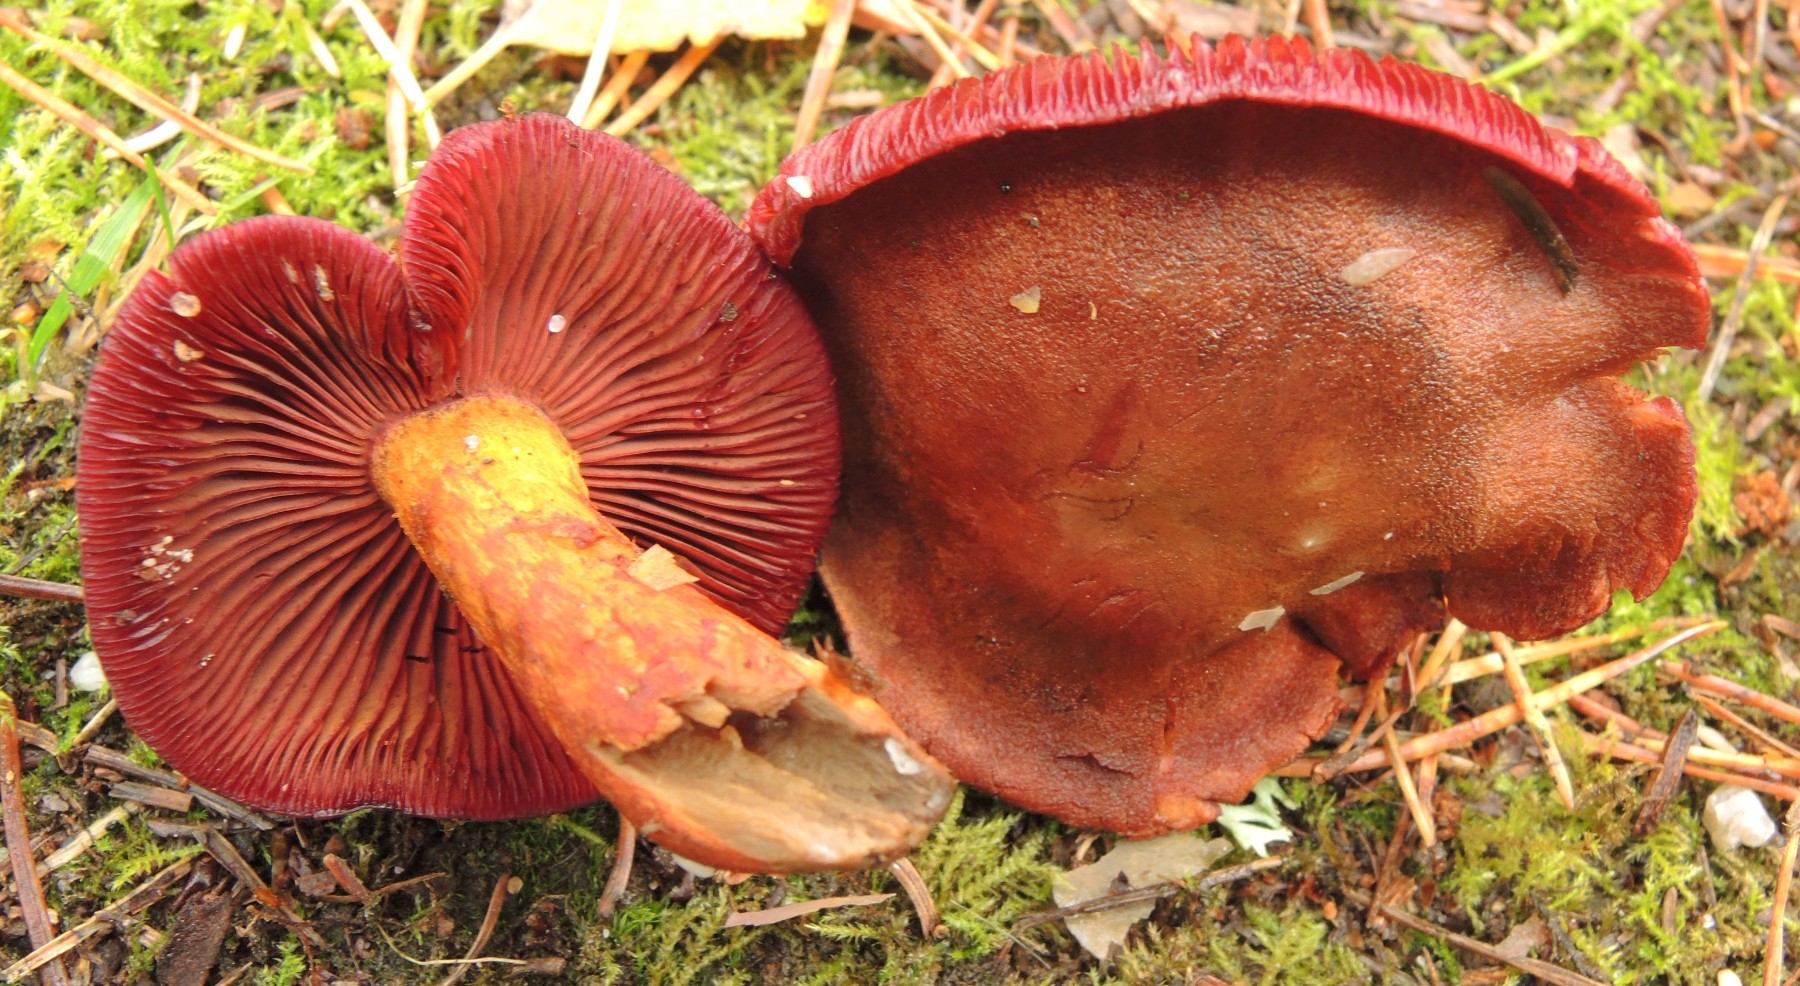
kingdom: Fungi
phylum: Basidiomycota
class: Agaricomycetes
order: Agaricales
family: Cortinariaceae
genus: Cortinarius
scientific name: Cortinarius purpureus
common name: brunrød slørhat
